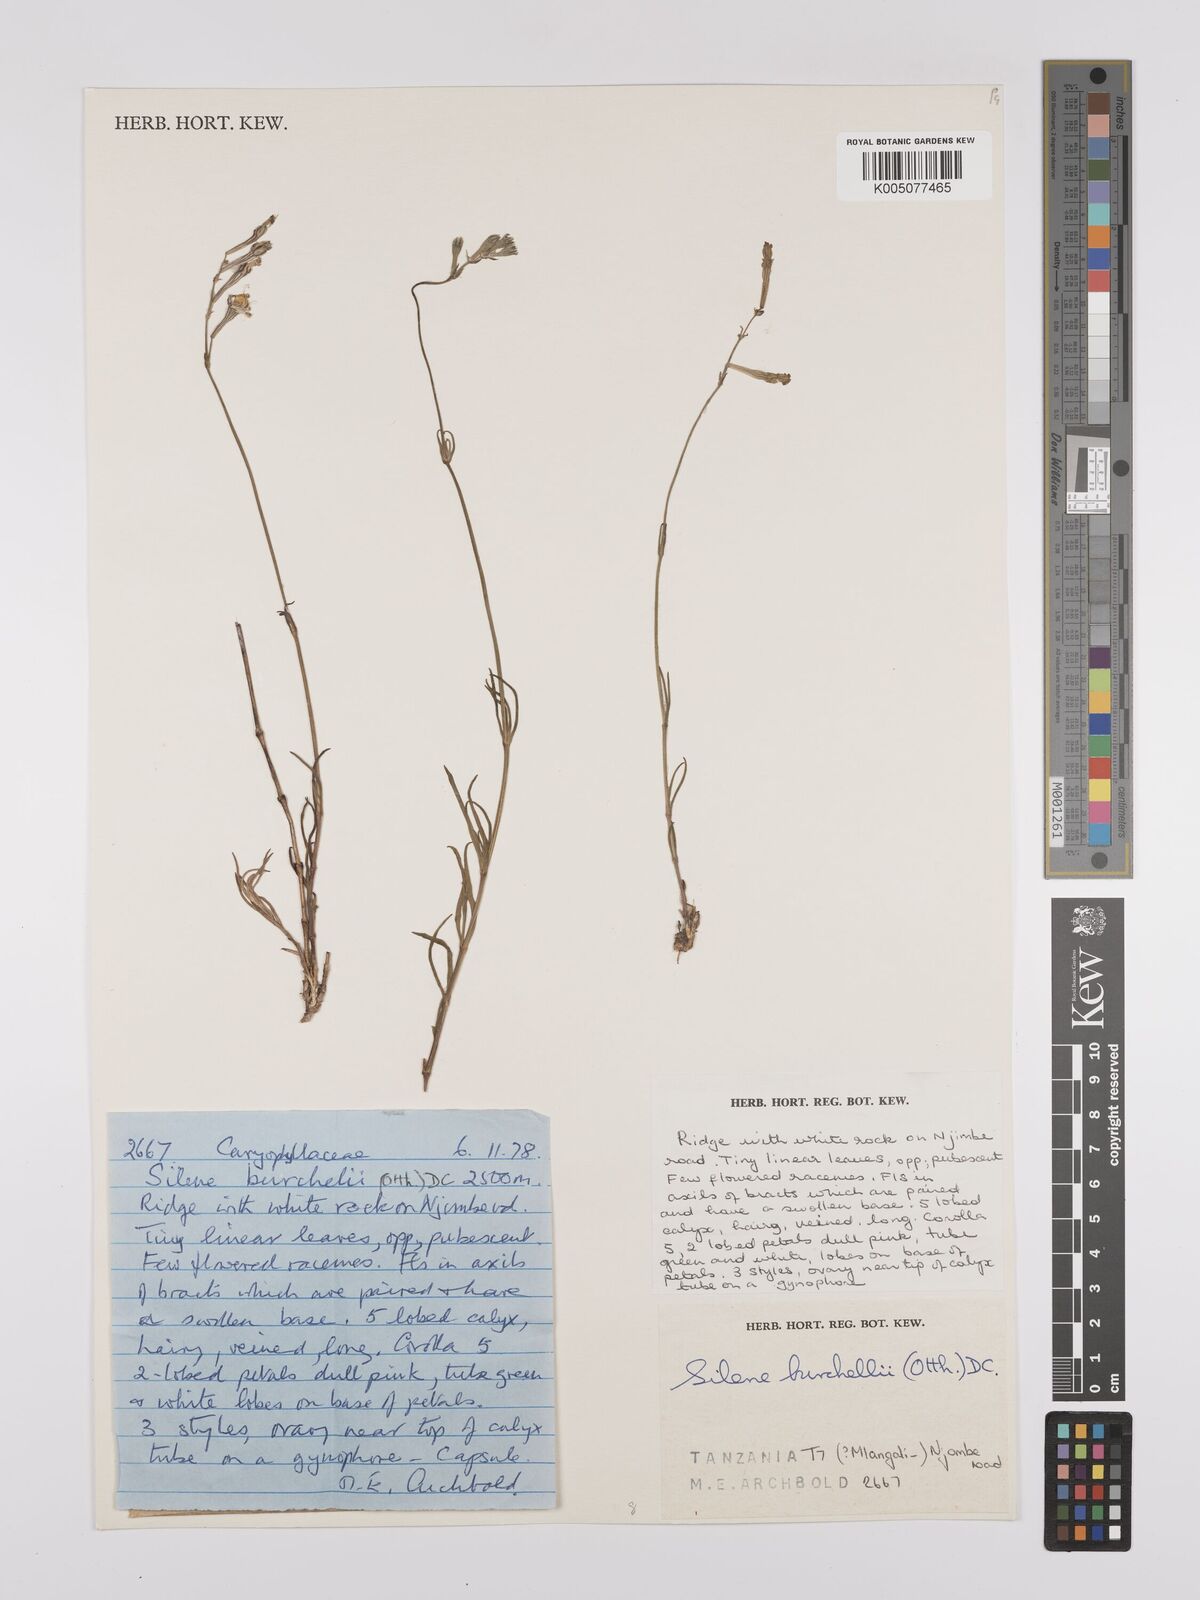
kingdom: Plantae
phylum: Tracheophyta
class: Magnoliopsida
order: Caryophyllales
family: Caryophyllaceae
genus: Silene
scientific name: Silene burchellii
